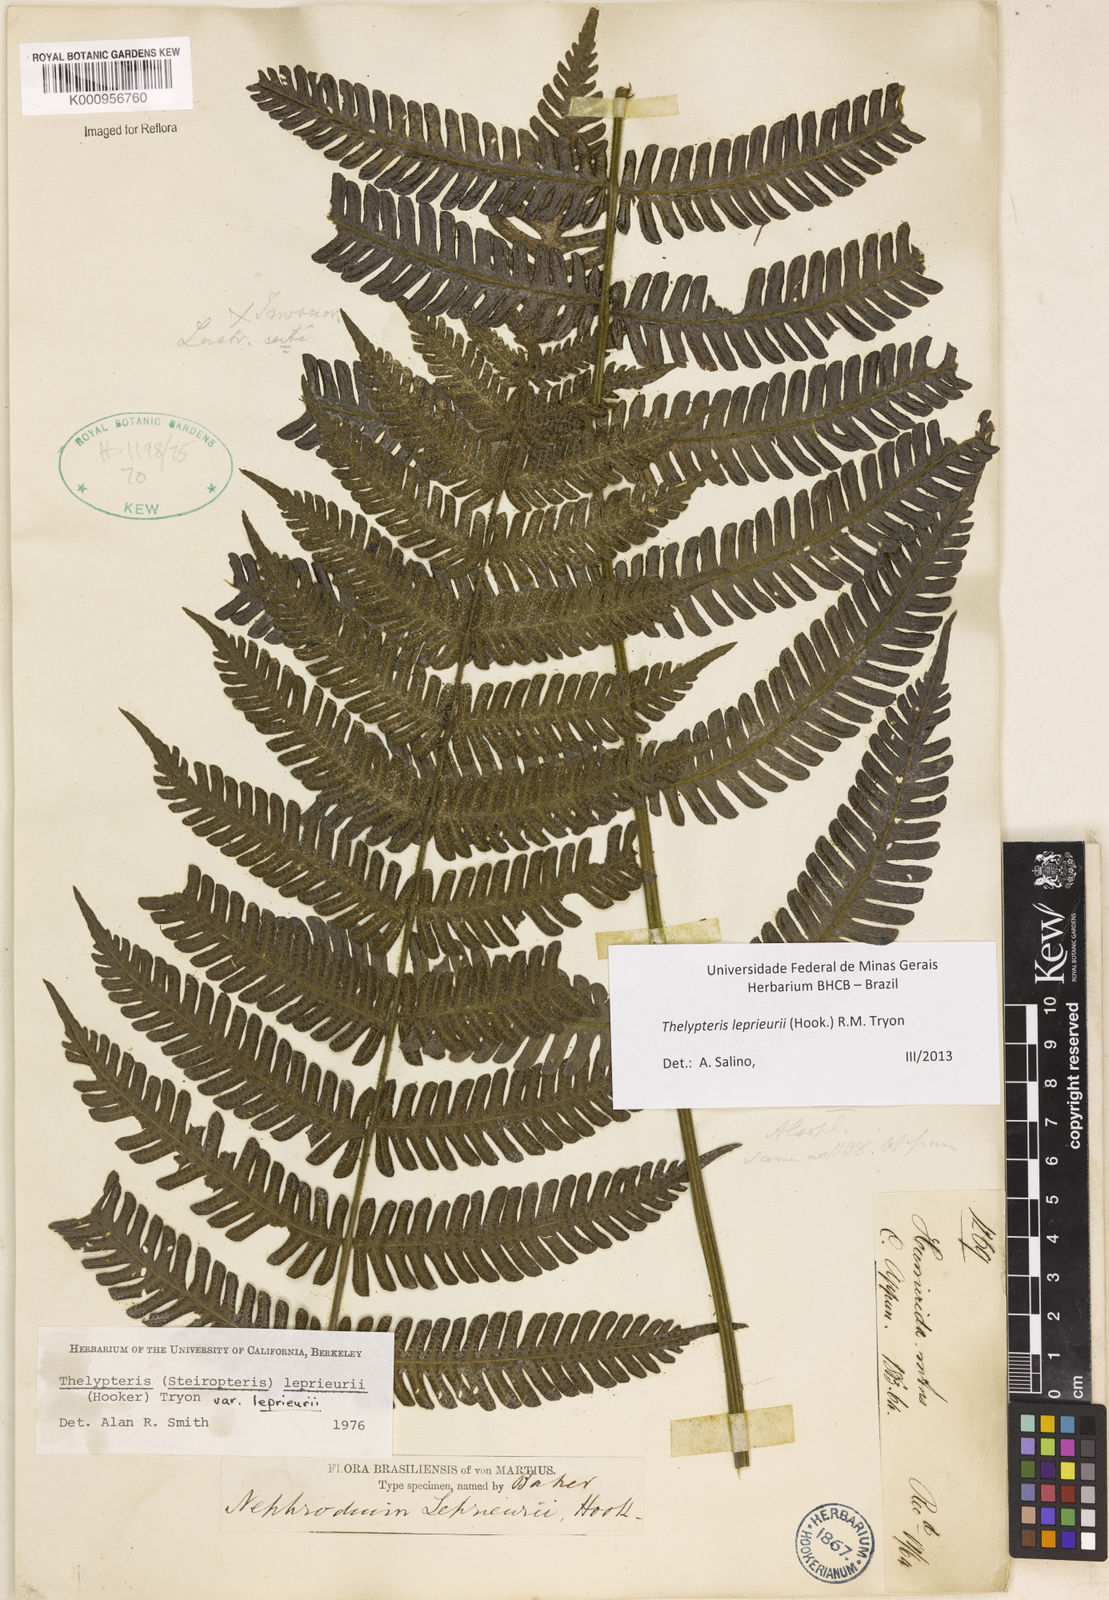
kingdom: Plantae
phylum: Tracheophyta
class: Polypodiopsida
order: Polypodiales
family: Thelypteridaceae
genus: Steiropteris
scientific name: Steiropteris leprieurii
